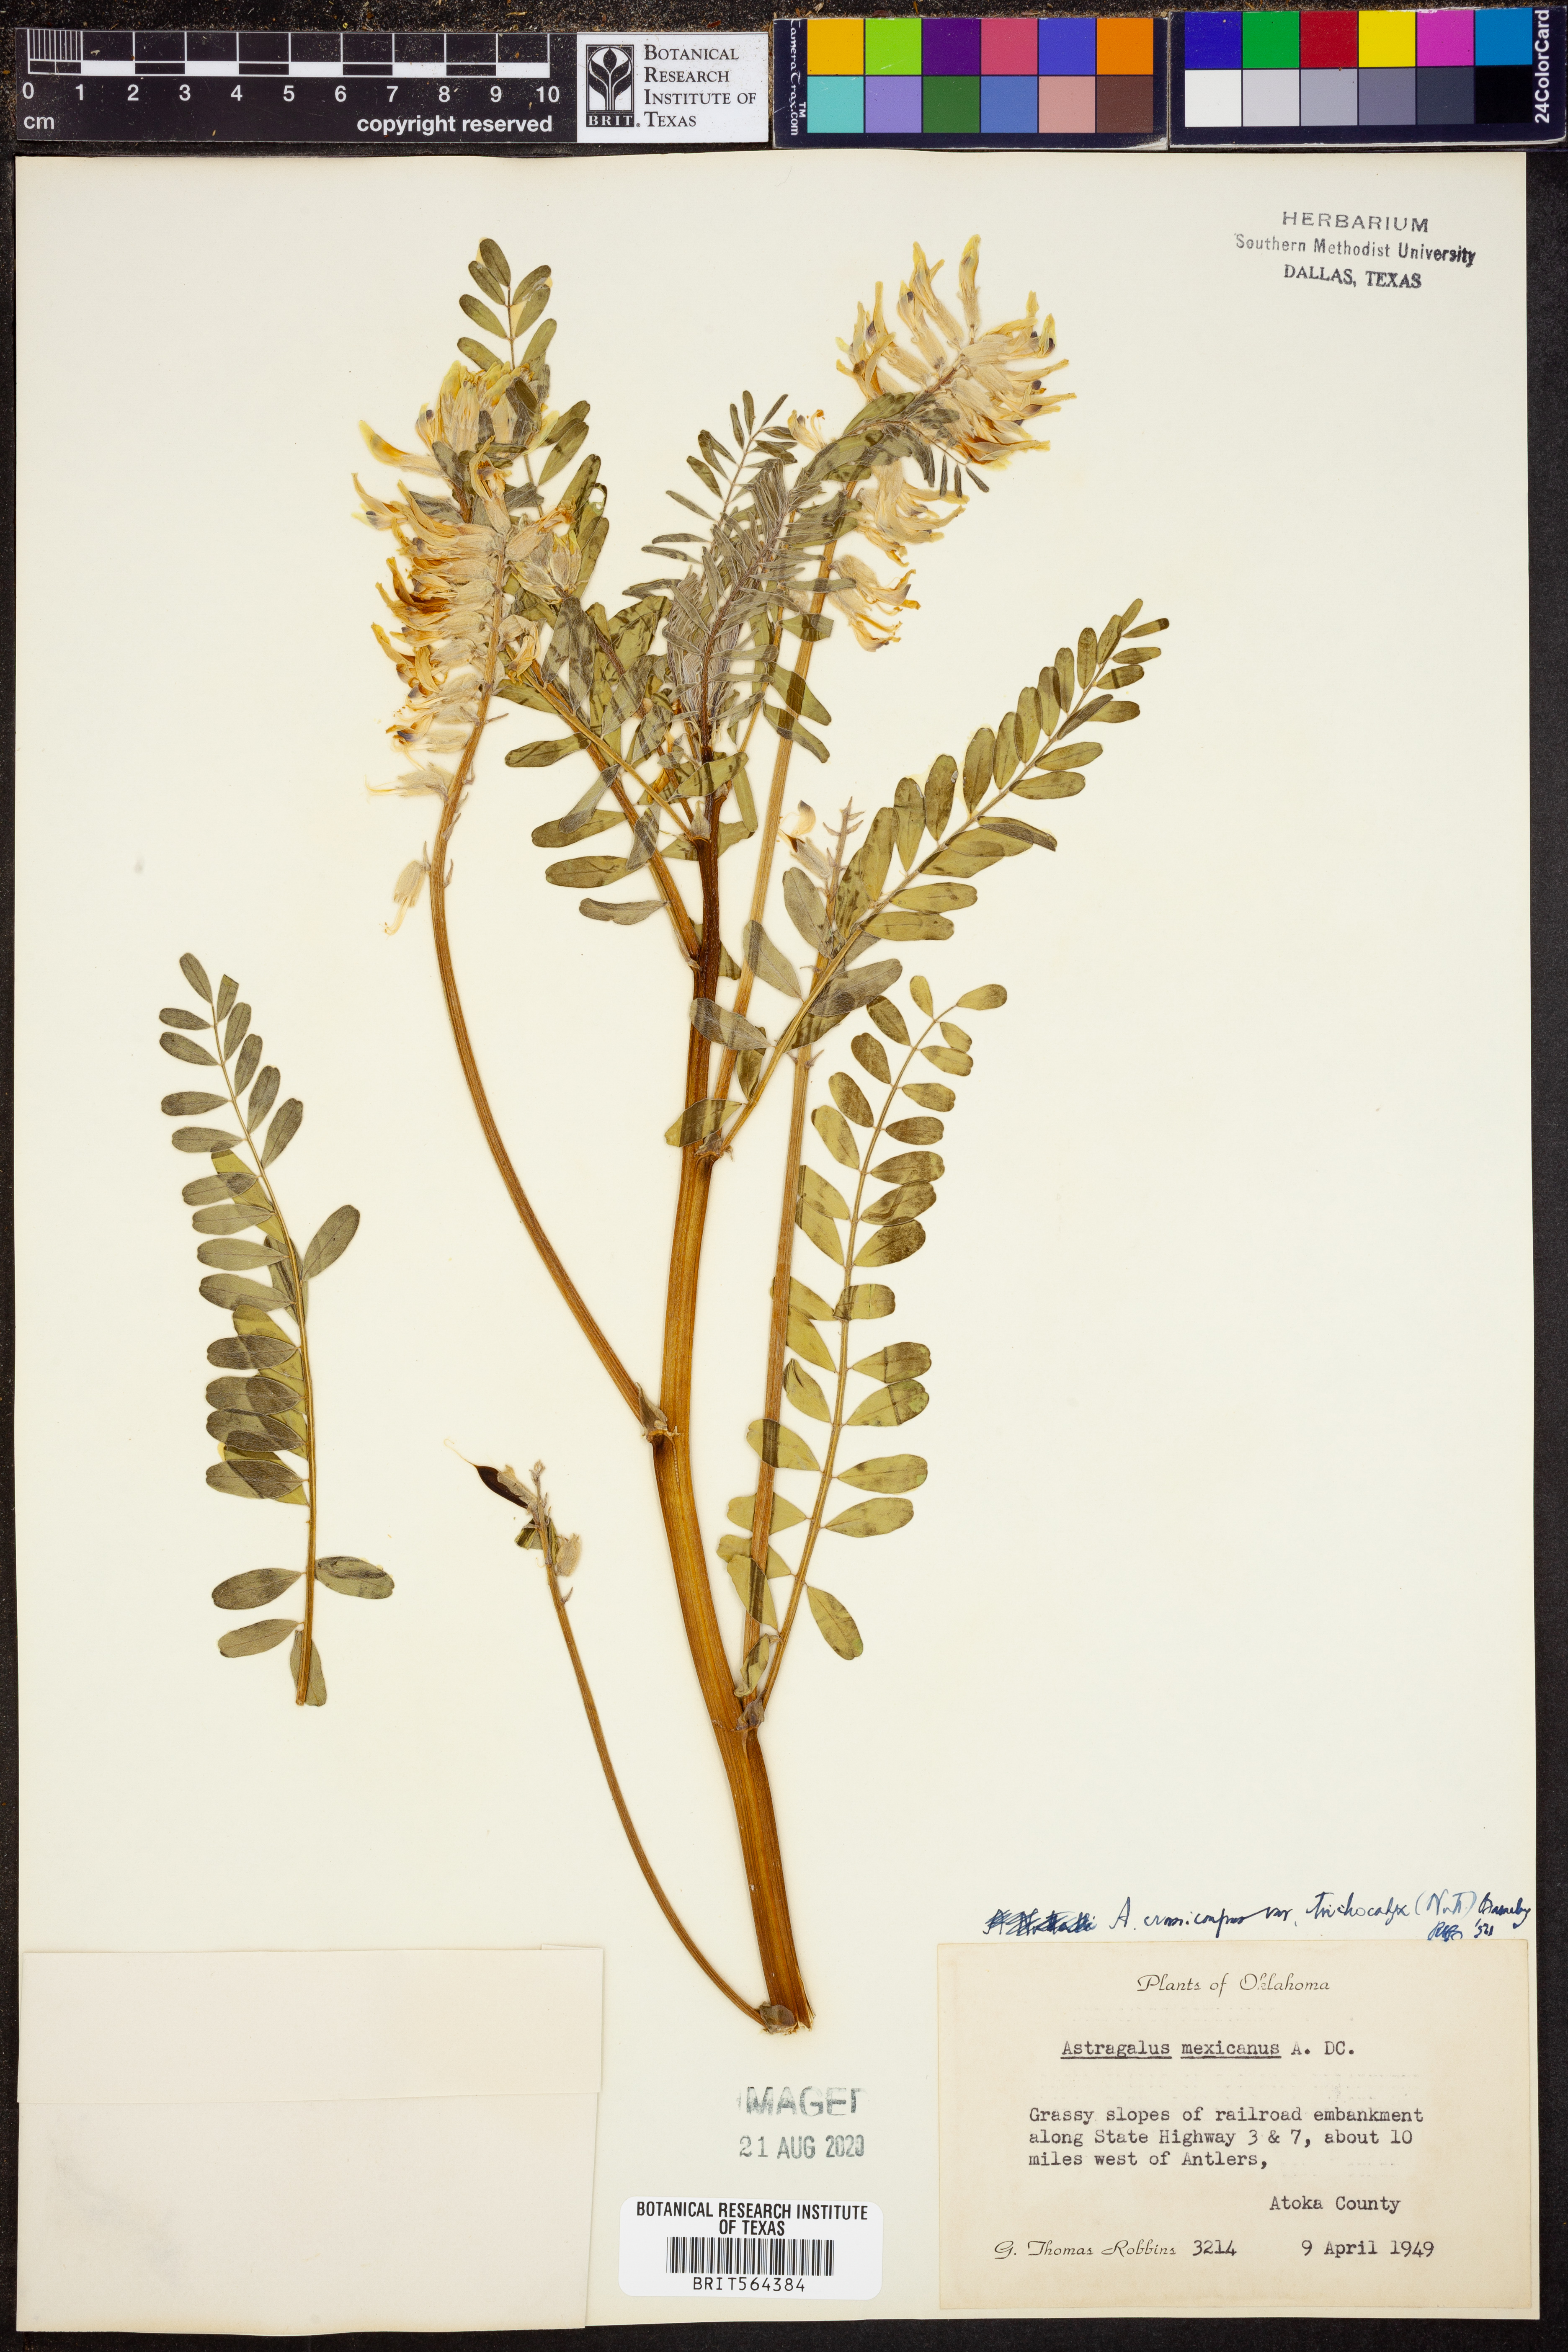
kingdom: Plantae
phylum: Tracheophyta
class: Magnoliopsida
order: Fabales
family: Fabaceae
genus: Astragalus
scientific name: Astragalus crassicarpus
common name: Ground-plum milk-vetch
